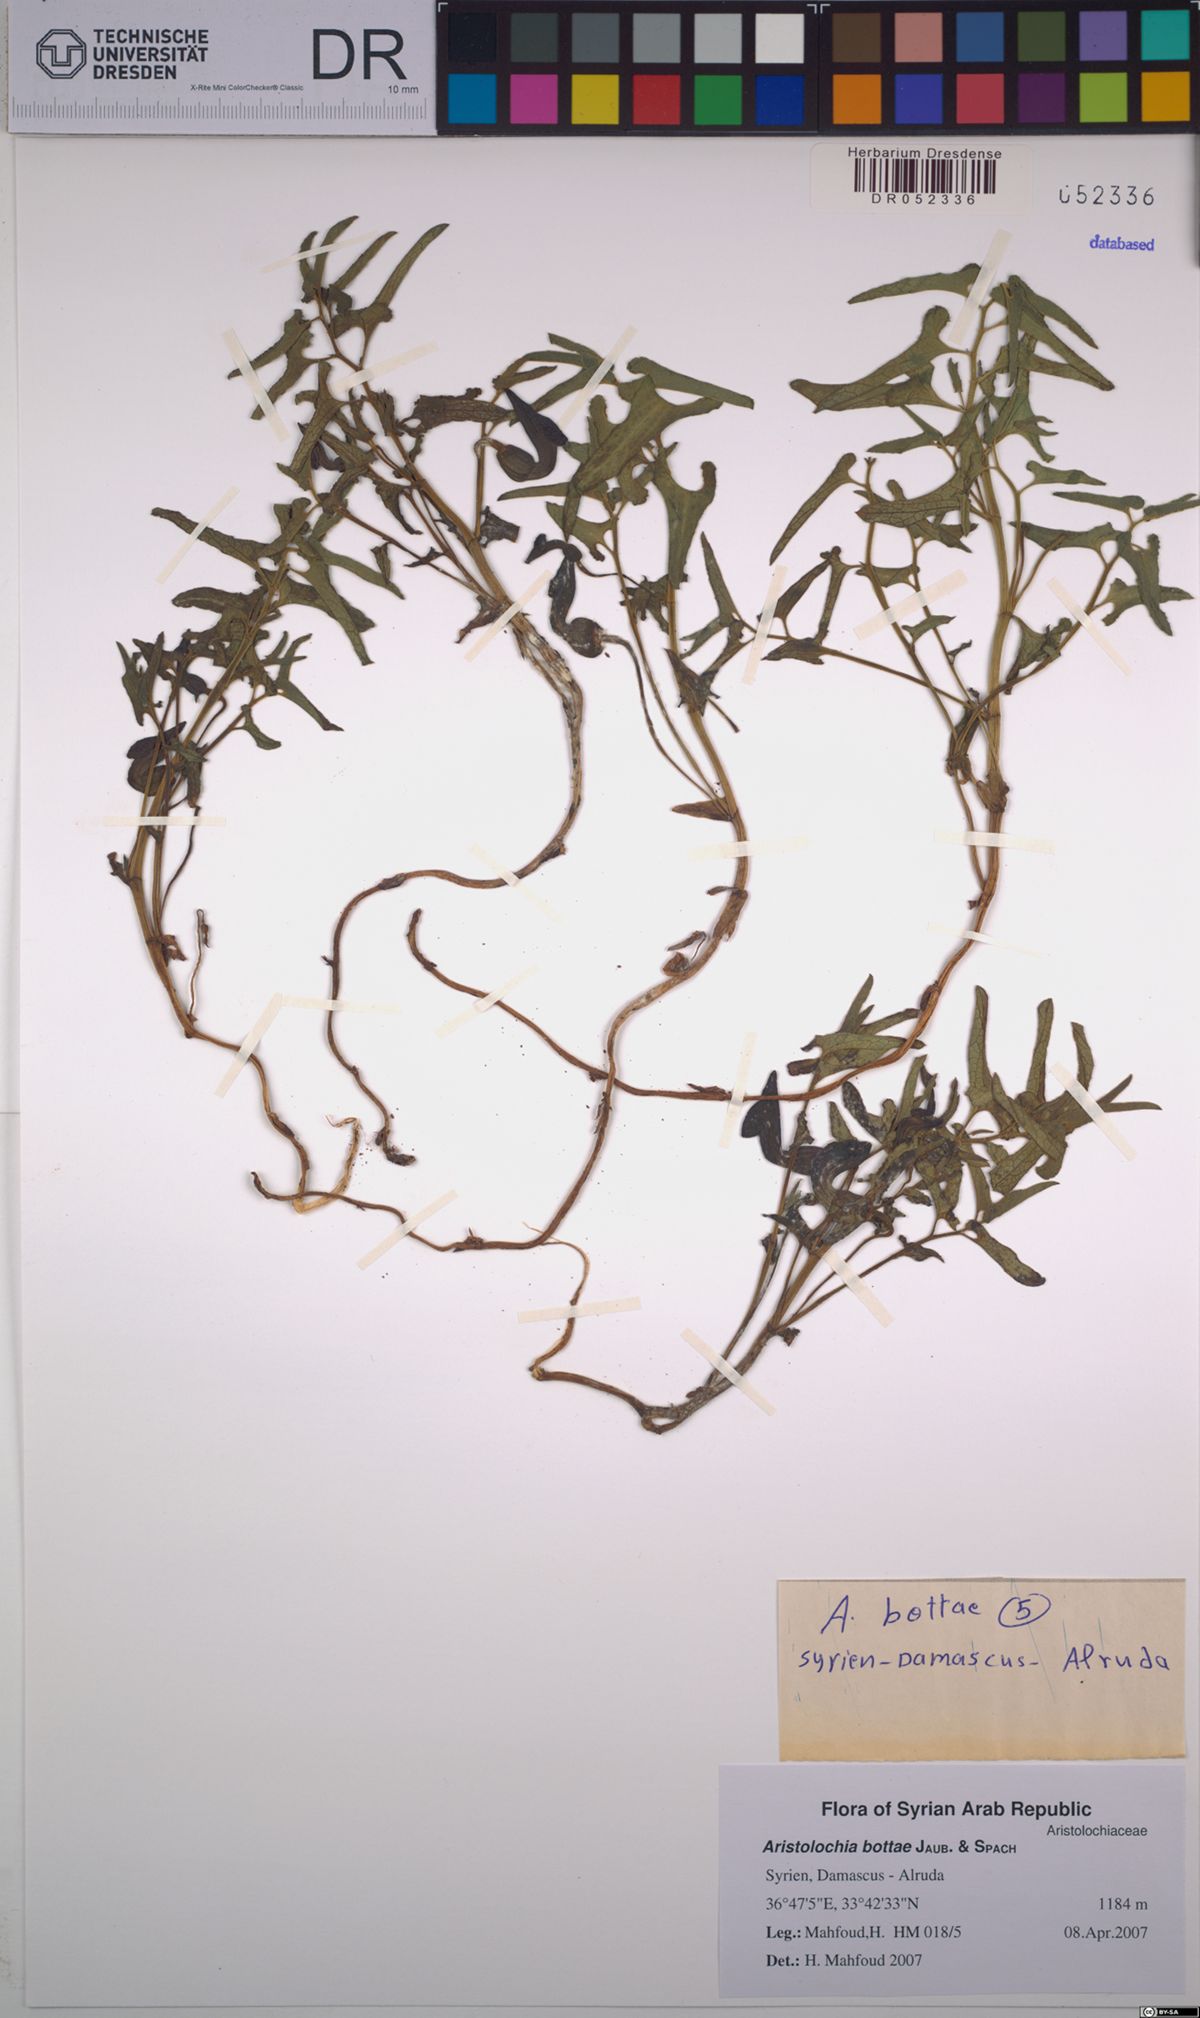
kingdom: Plantae
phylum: Tracheophyta
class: Magnoliopsida
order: Piperales
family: Aristolochiaceae
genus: Aristolochia
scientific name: Aristolochia bottae
